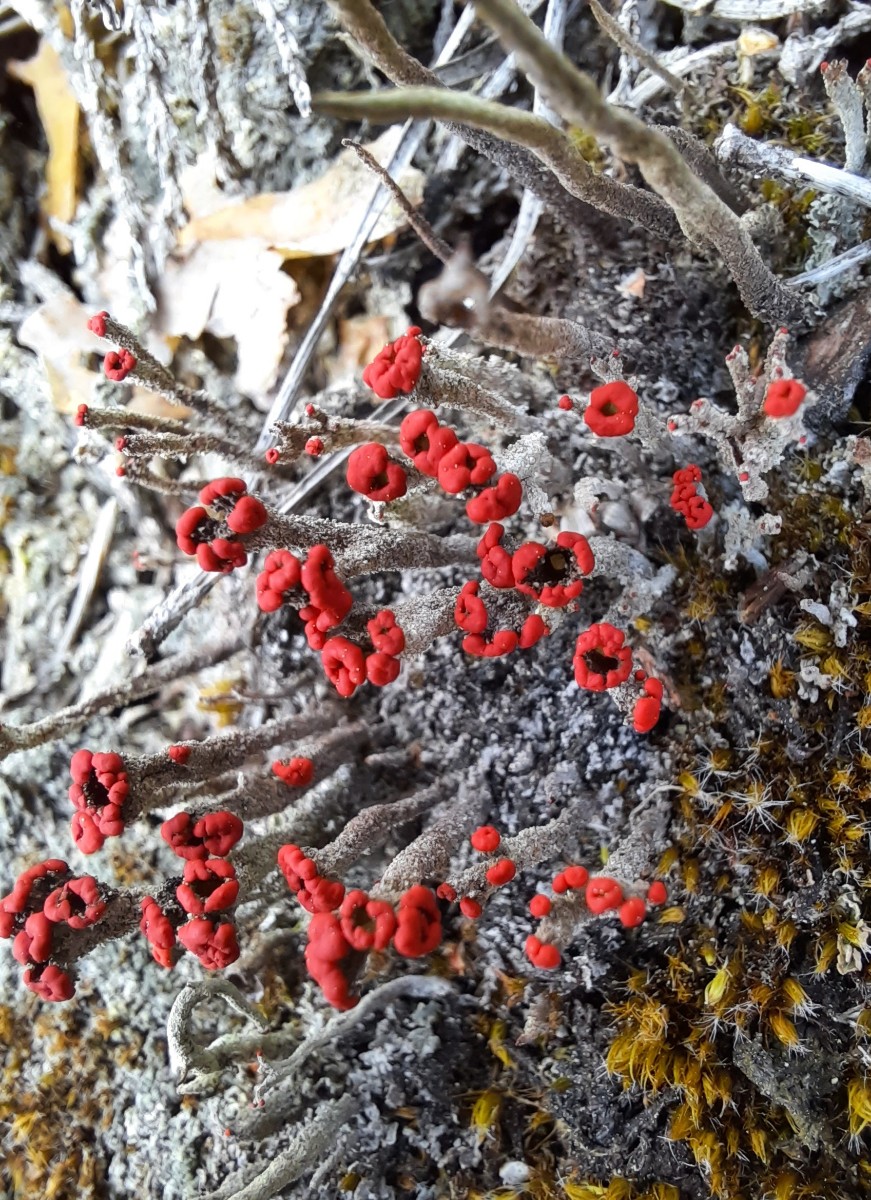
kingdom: Fungi
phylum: Ascomycota
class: Lecanoromycetes
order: Lecanorales
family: Cladoniaceae
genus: Cladonia
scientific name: Cladonia floerkeana
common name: lakrød bægerlav
